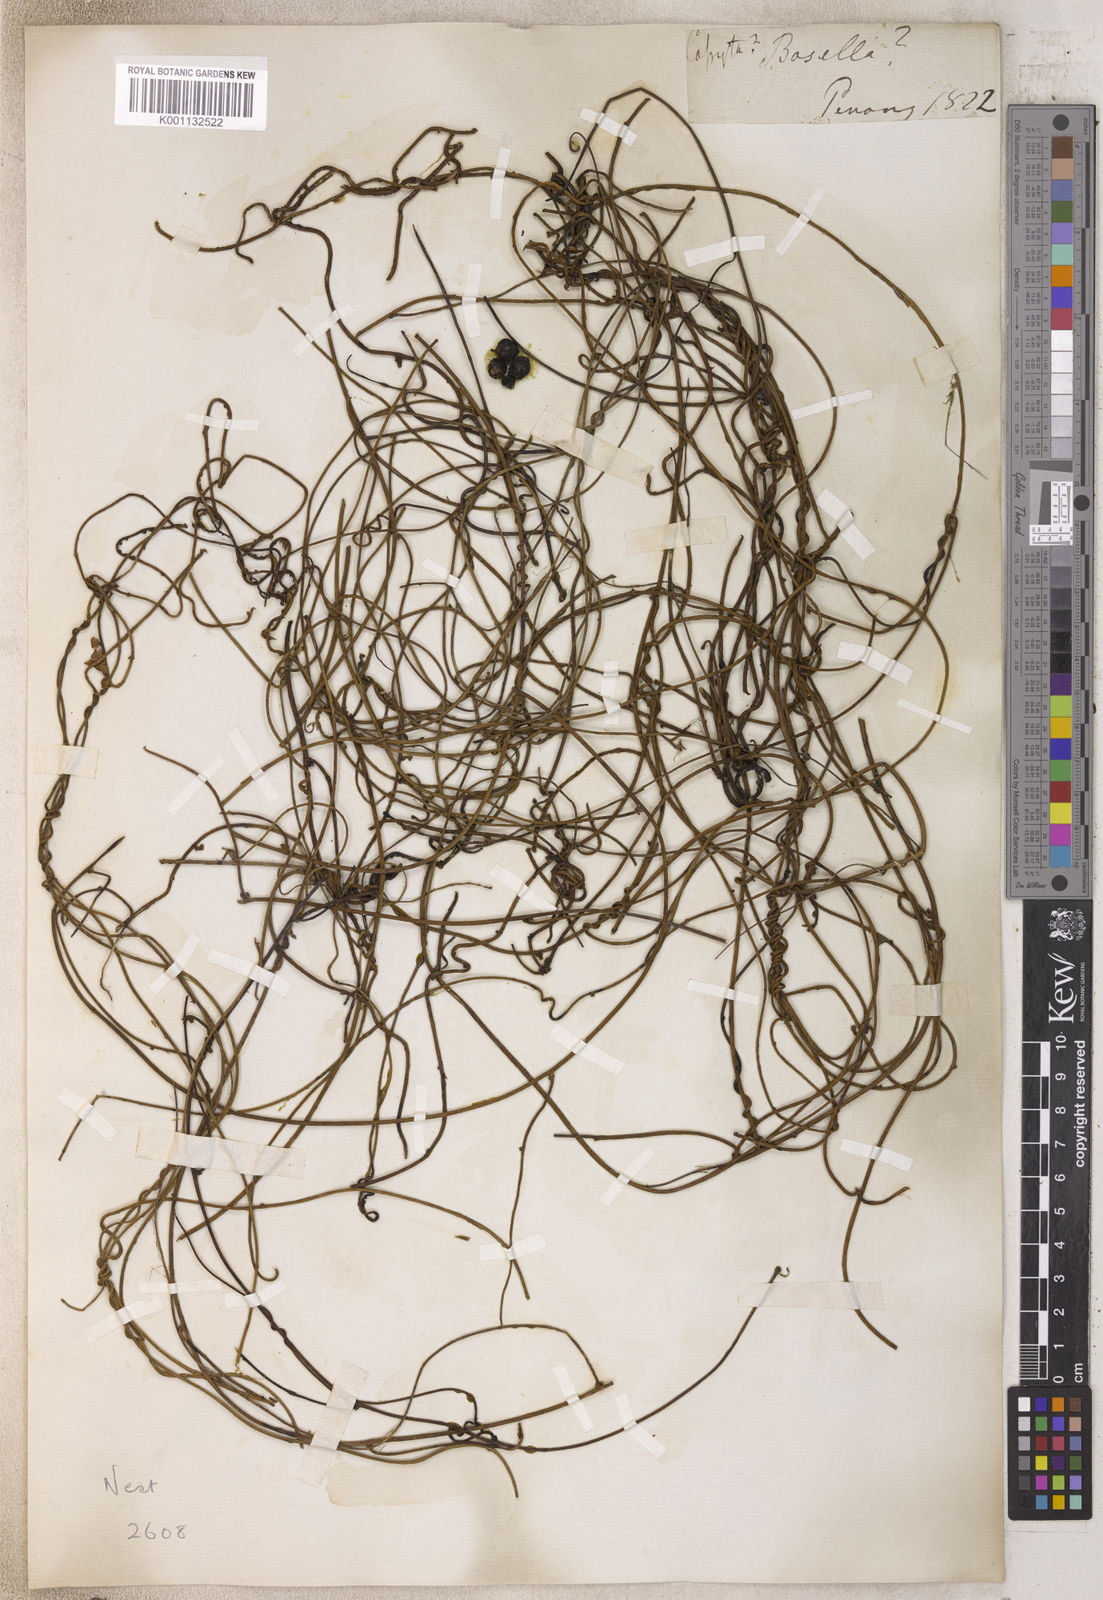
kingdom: Plantae
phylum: Tracheophyta
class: Magnoliopsida
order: Laurales
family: Lauraceae
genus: Cassytha
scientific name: Cassytha
